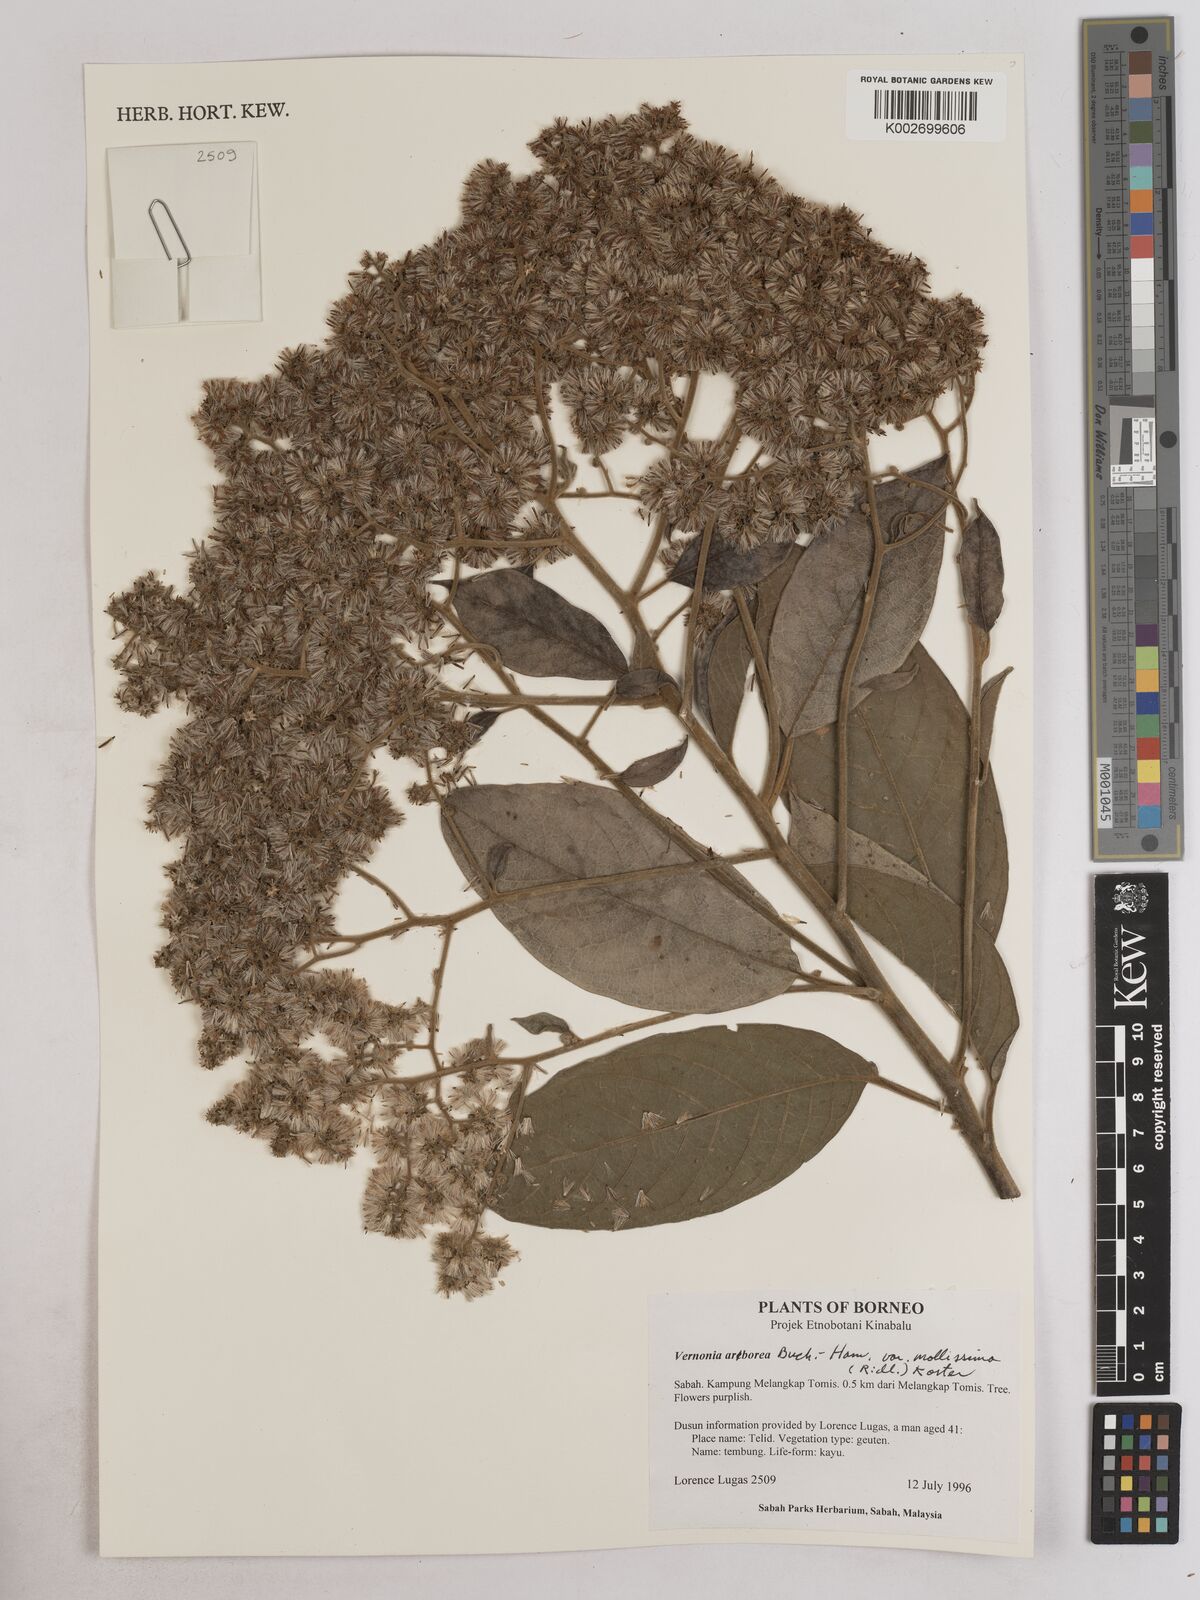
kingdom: Plantae
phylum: Tracheophyta
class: Magnoliopsida
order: Asterales
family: Asteraceae
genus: Strobocalyx
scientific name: Strobocalyx arborea
